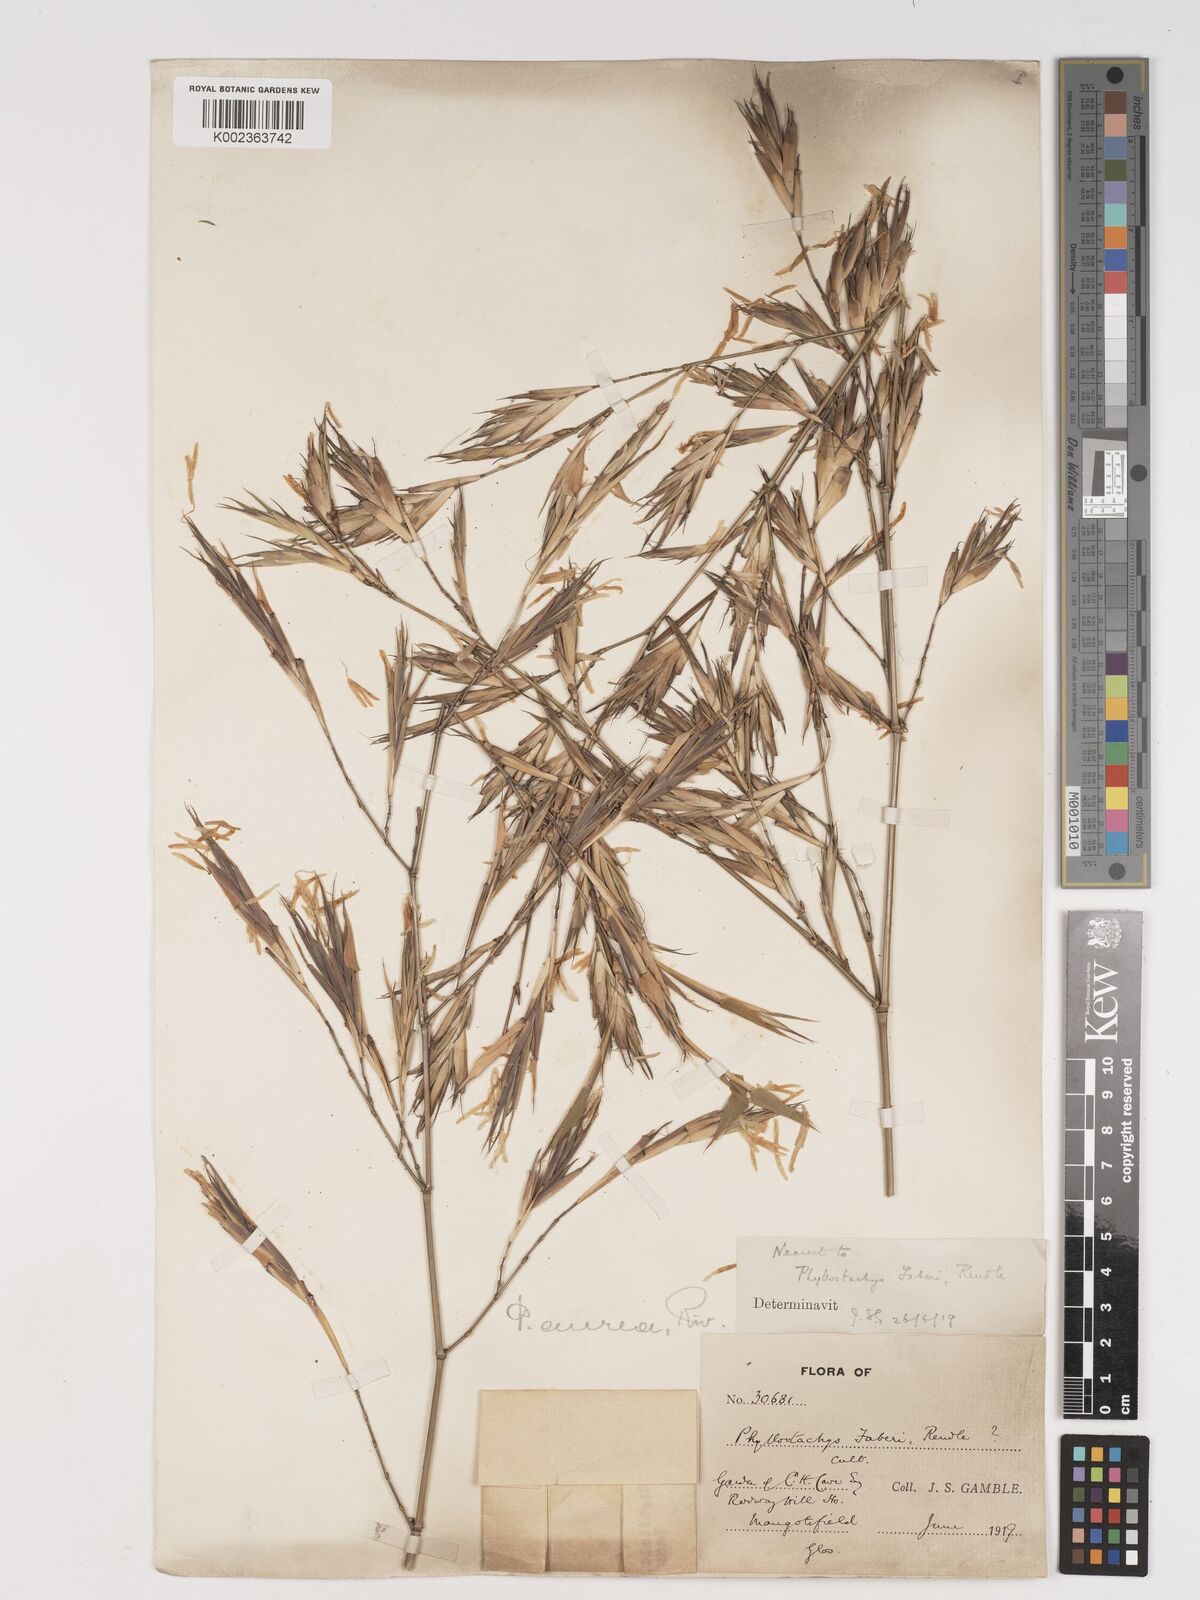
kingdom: Plantae
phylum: Tracheophyta
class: Liliopsida
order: Poales
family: Poaceae
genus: Phyllostachys
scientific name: Phyllostachys aurea
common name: Golden bamboo
